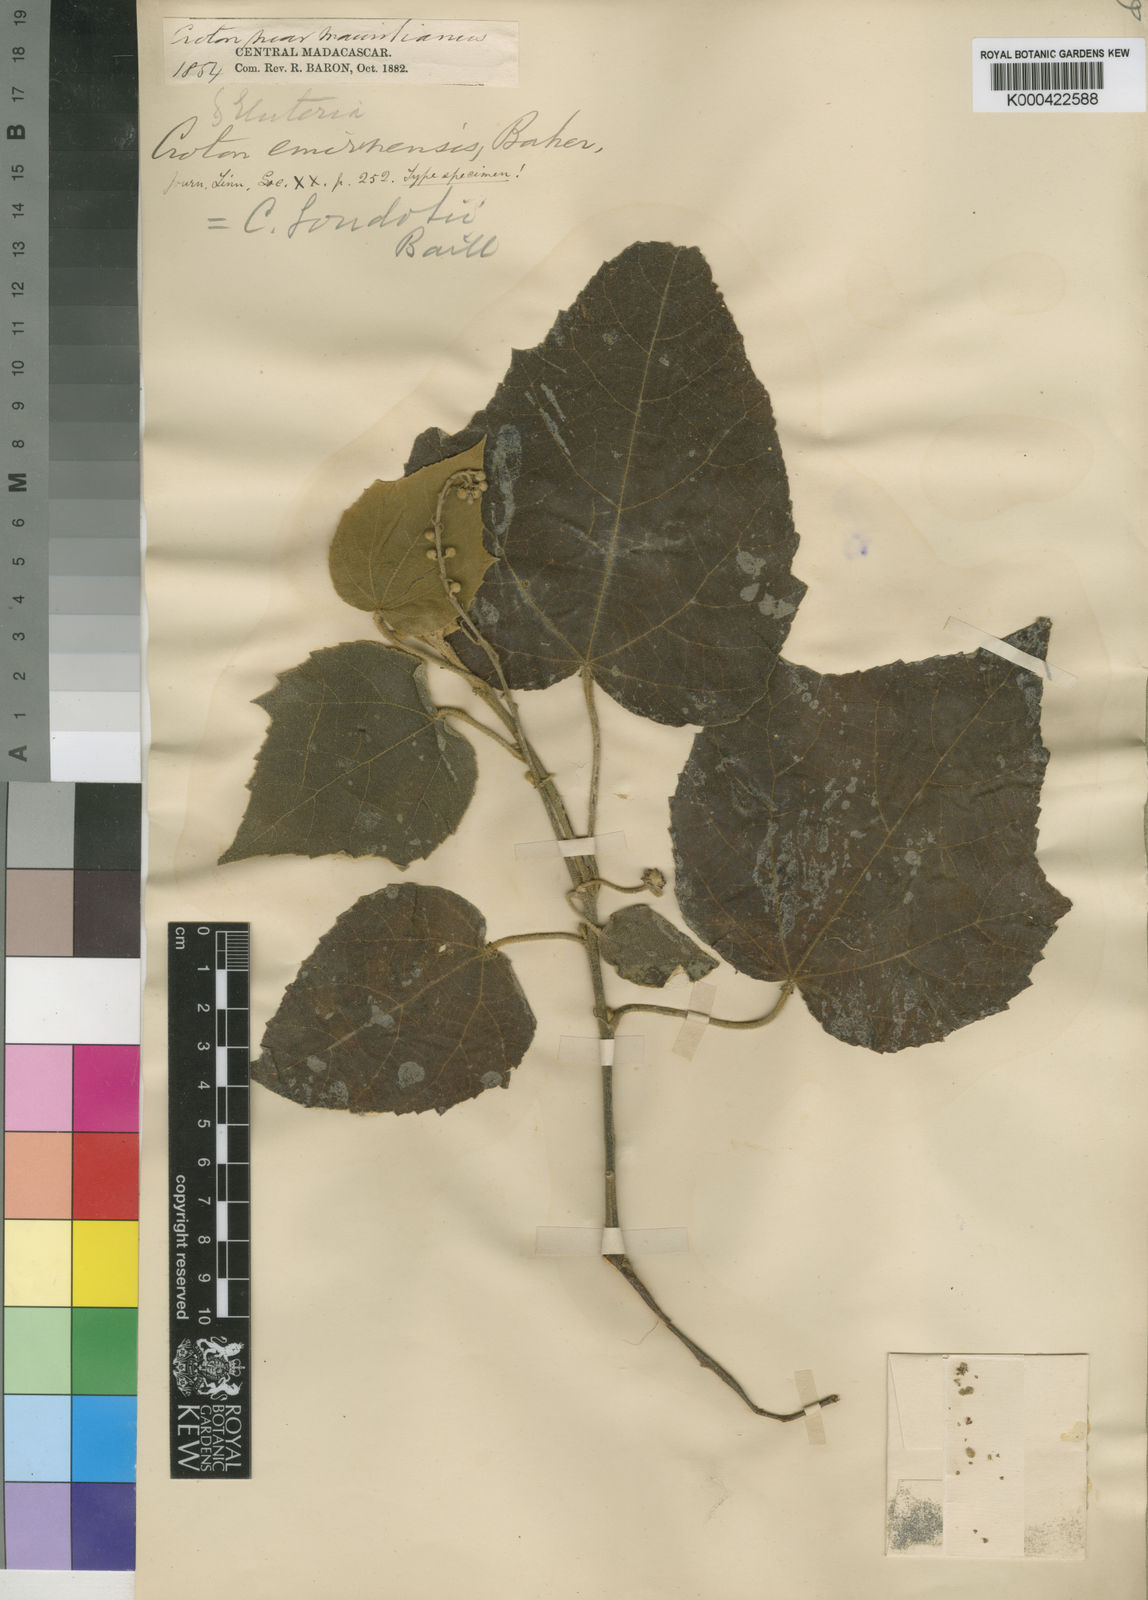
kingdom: Plantae
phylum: Tracheophyta
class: Magnoliopsida
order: Malpighiales
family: Euphorbiaceae
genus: Croton
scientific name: Croton goudotii
